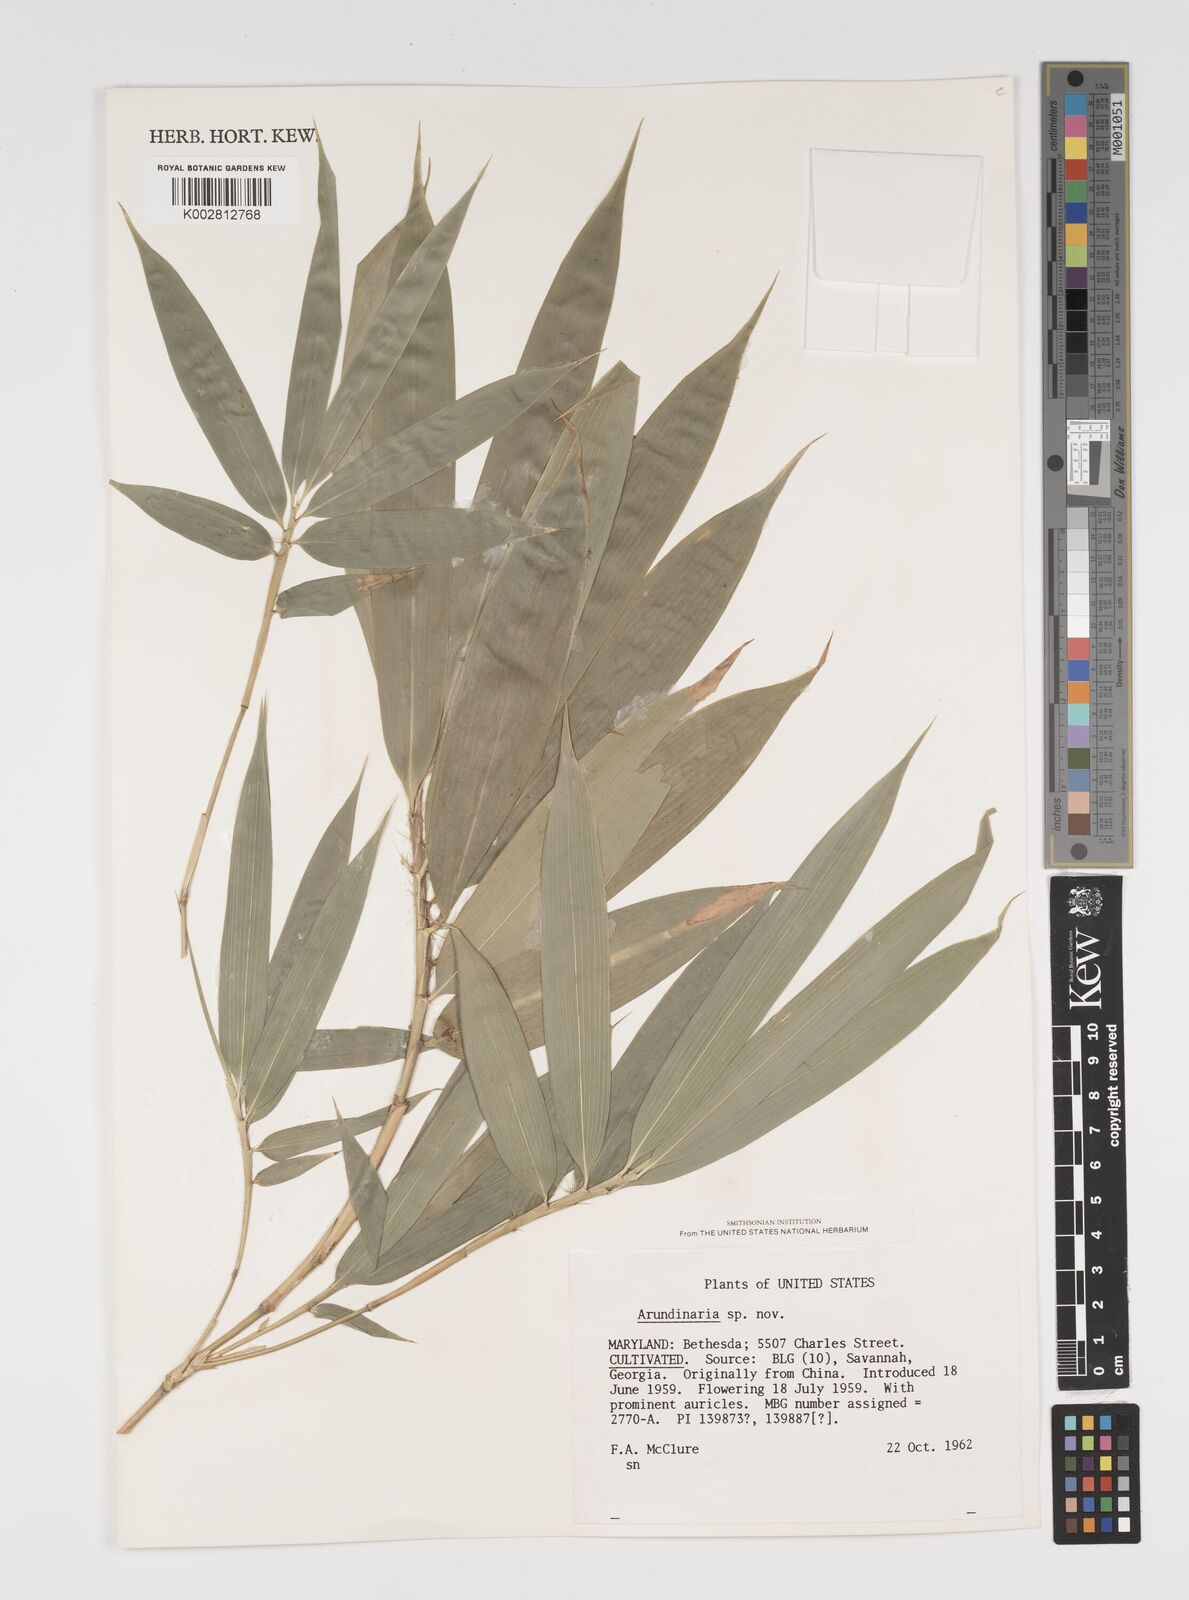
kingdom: Plantae
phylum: Tracheophyta
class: Liliopsida
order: Poales
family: Poaceae
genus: Arundinaria
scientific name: Arundinaria
